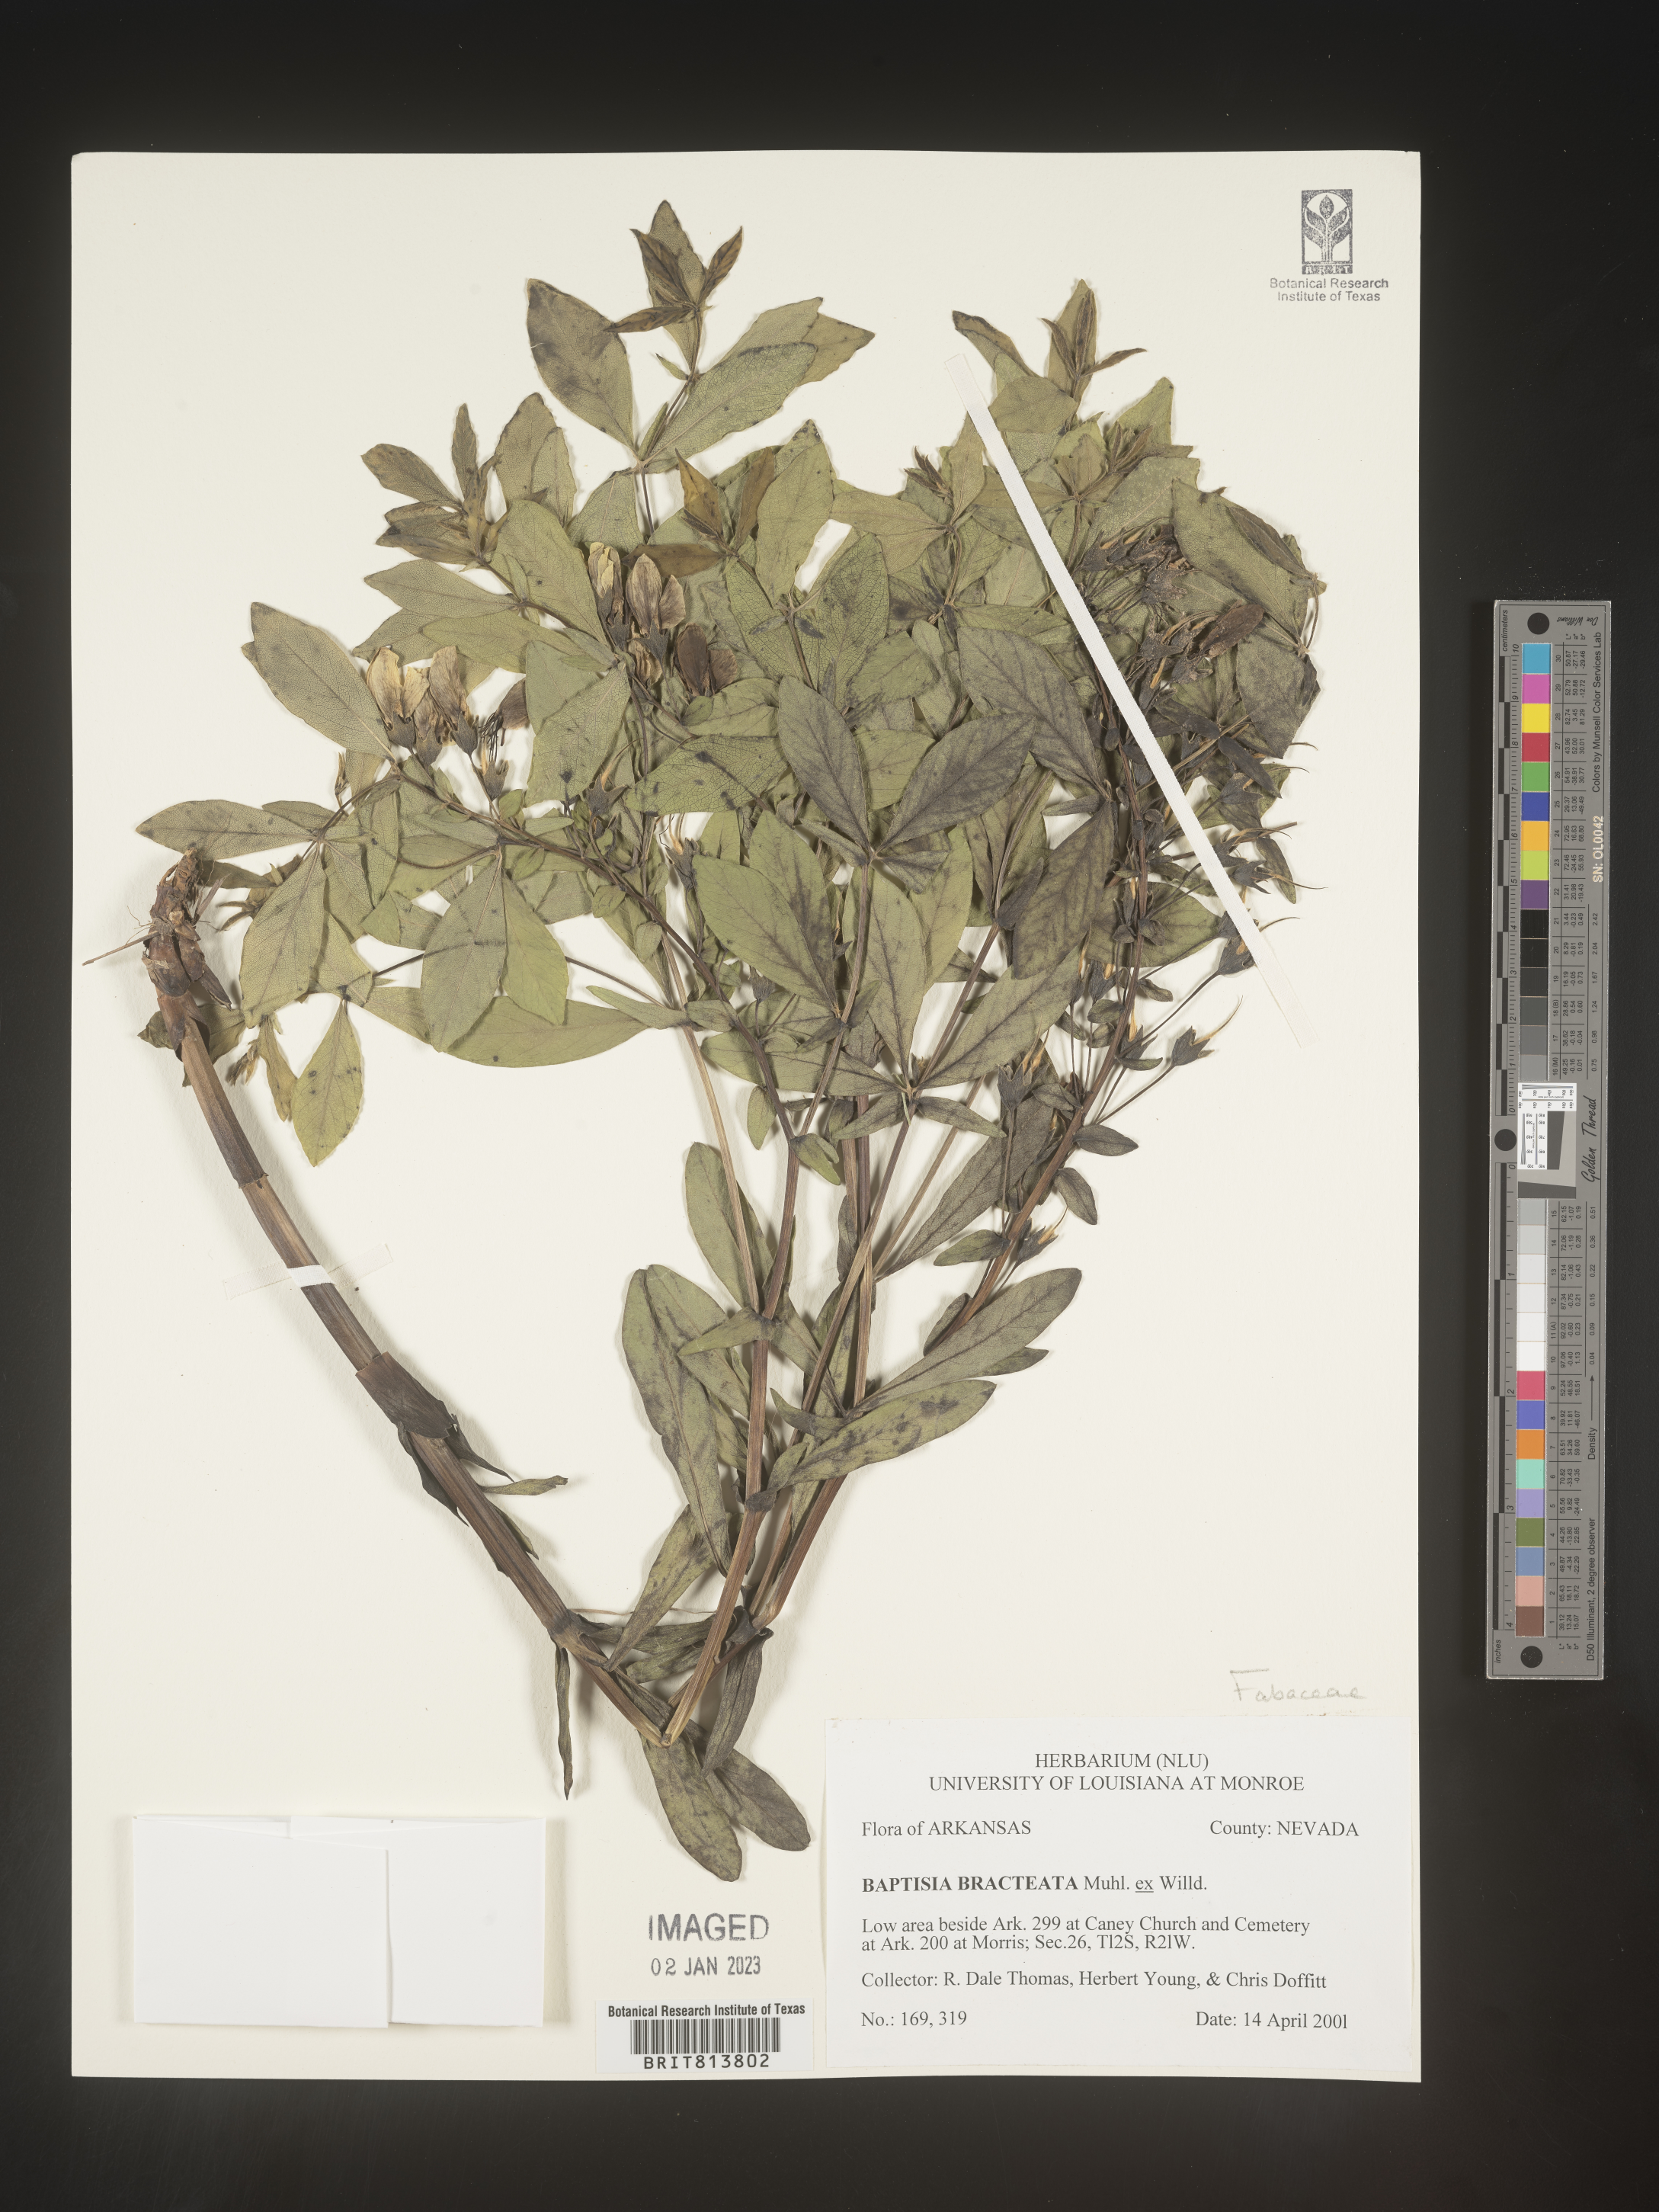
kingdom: Plantae
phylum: Tracheophyta
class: Magnoliopsida
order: Fabales
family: Fabaceae
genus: Baptisia
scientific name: Baptisia bracteata
